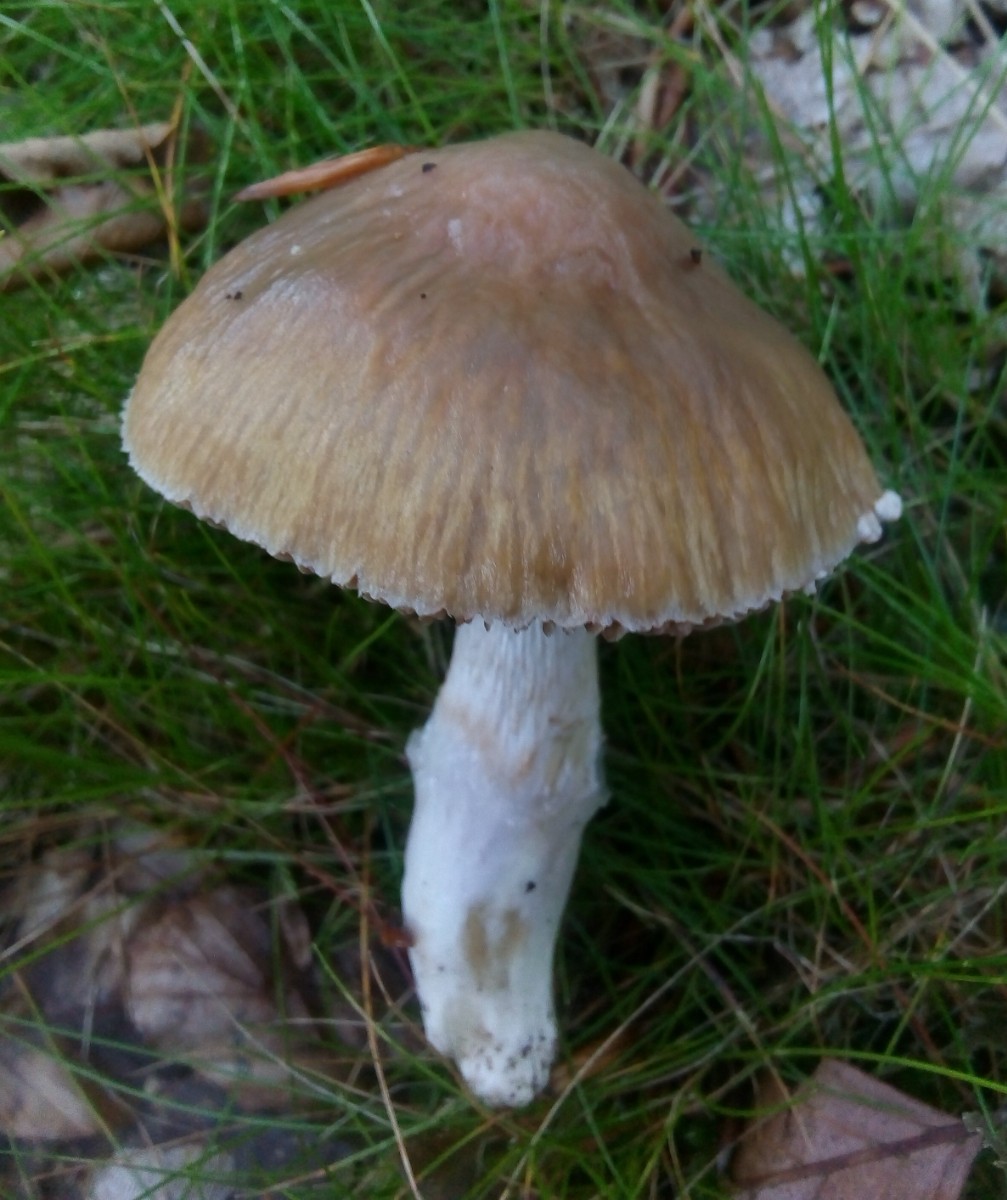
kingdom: Fungi
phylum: Basidiomycota
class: Agaricomycetes
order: Agaricales
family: Cortinariaceae
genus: Cortinarius
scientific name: Cortinarius elatior
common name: høj slørhat
